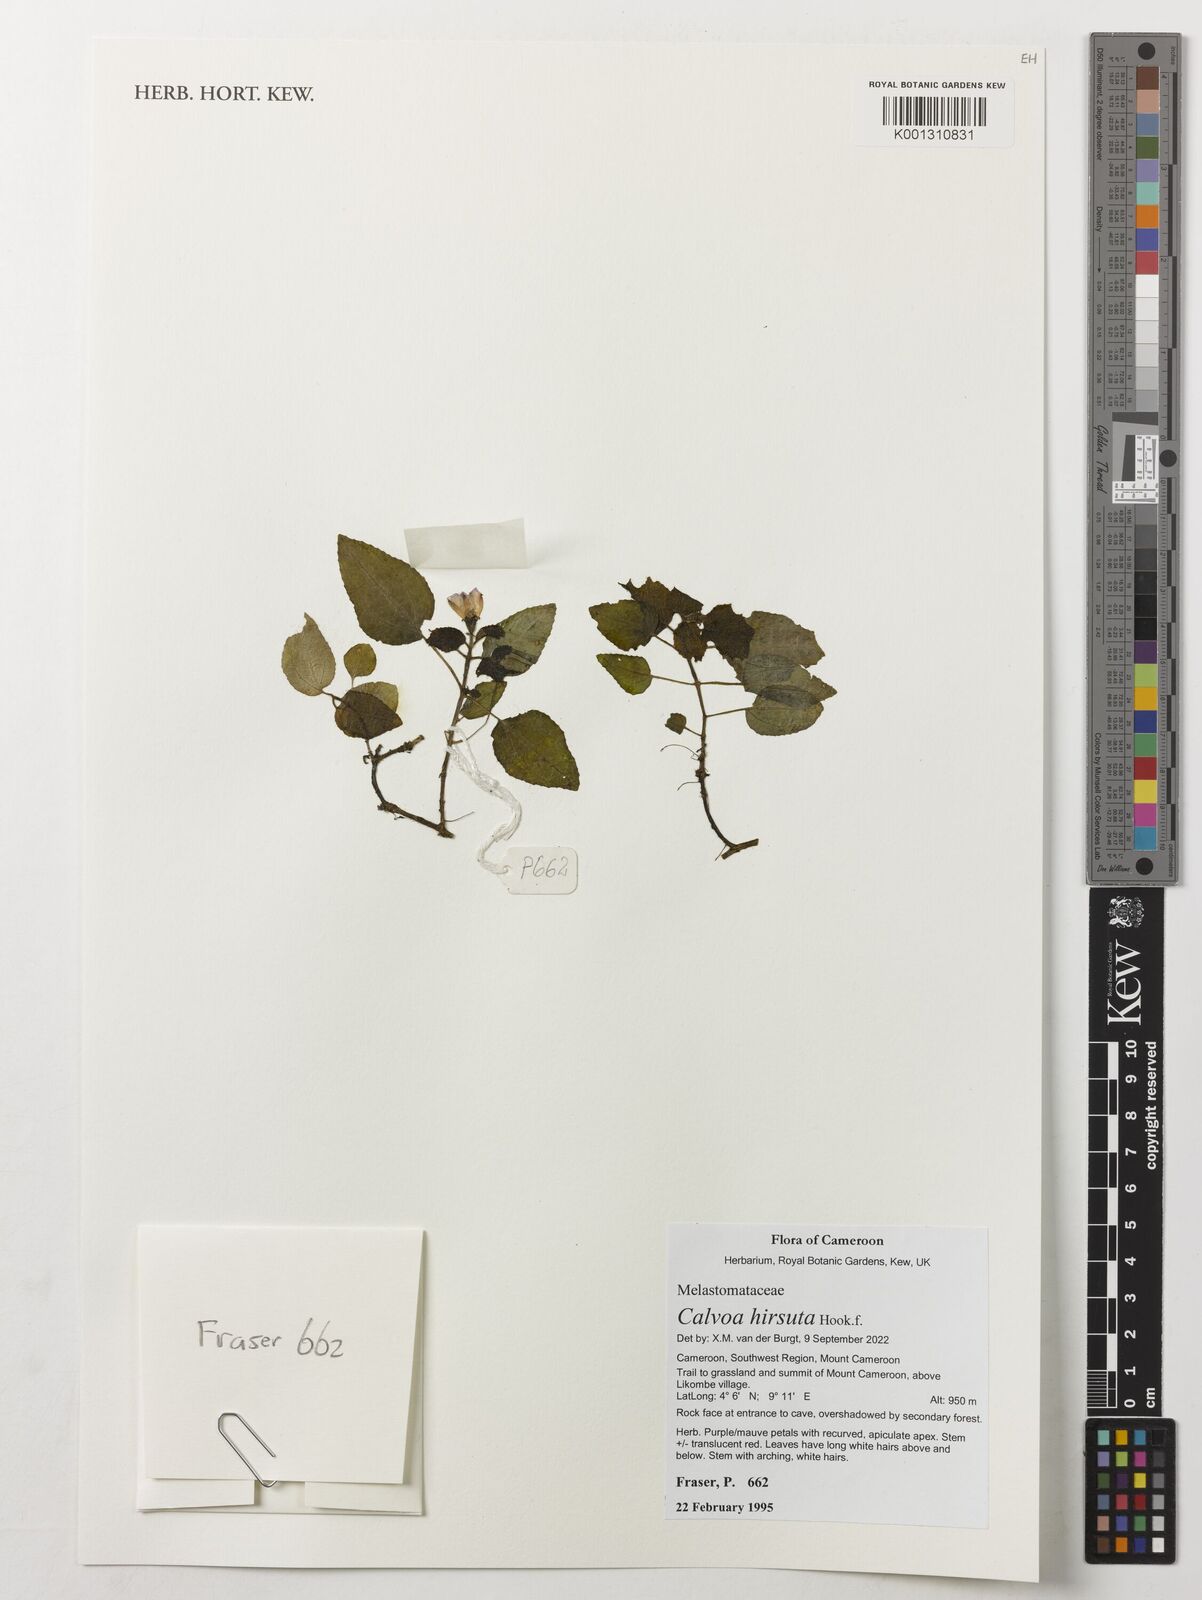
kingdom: Plantae
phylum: Tracheophyta
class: Magnoliopsida
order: Myrtales
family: Melastomataceae
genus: Calvoa
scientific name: Calvoa hirsuta
